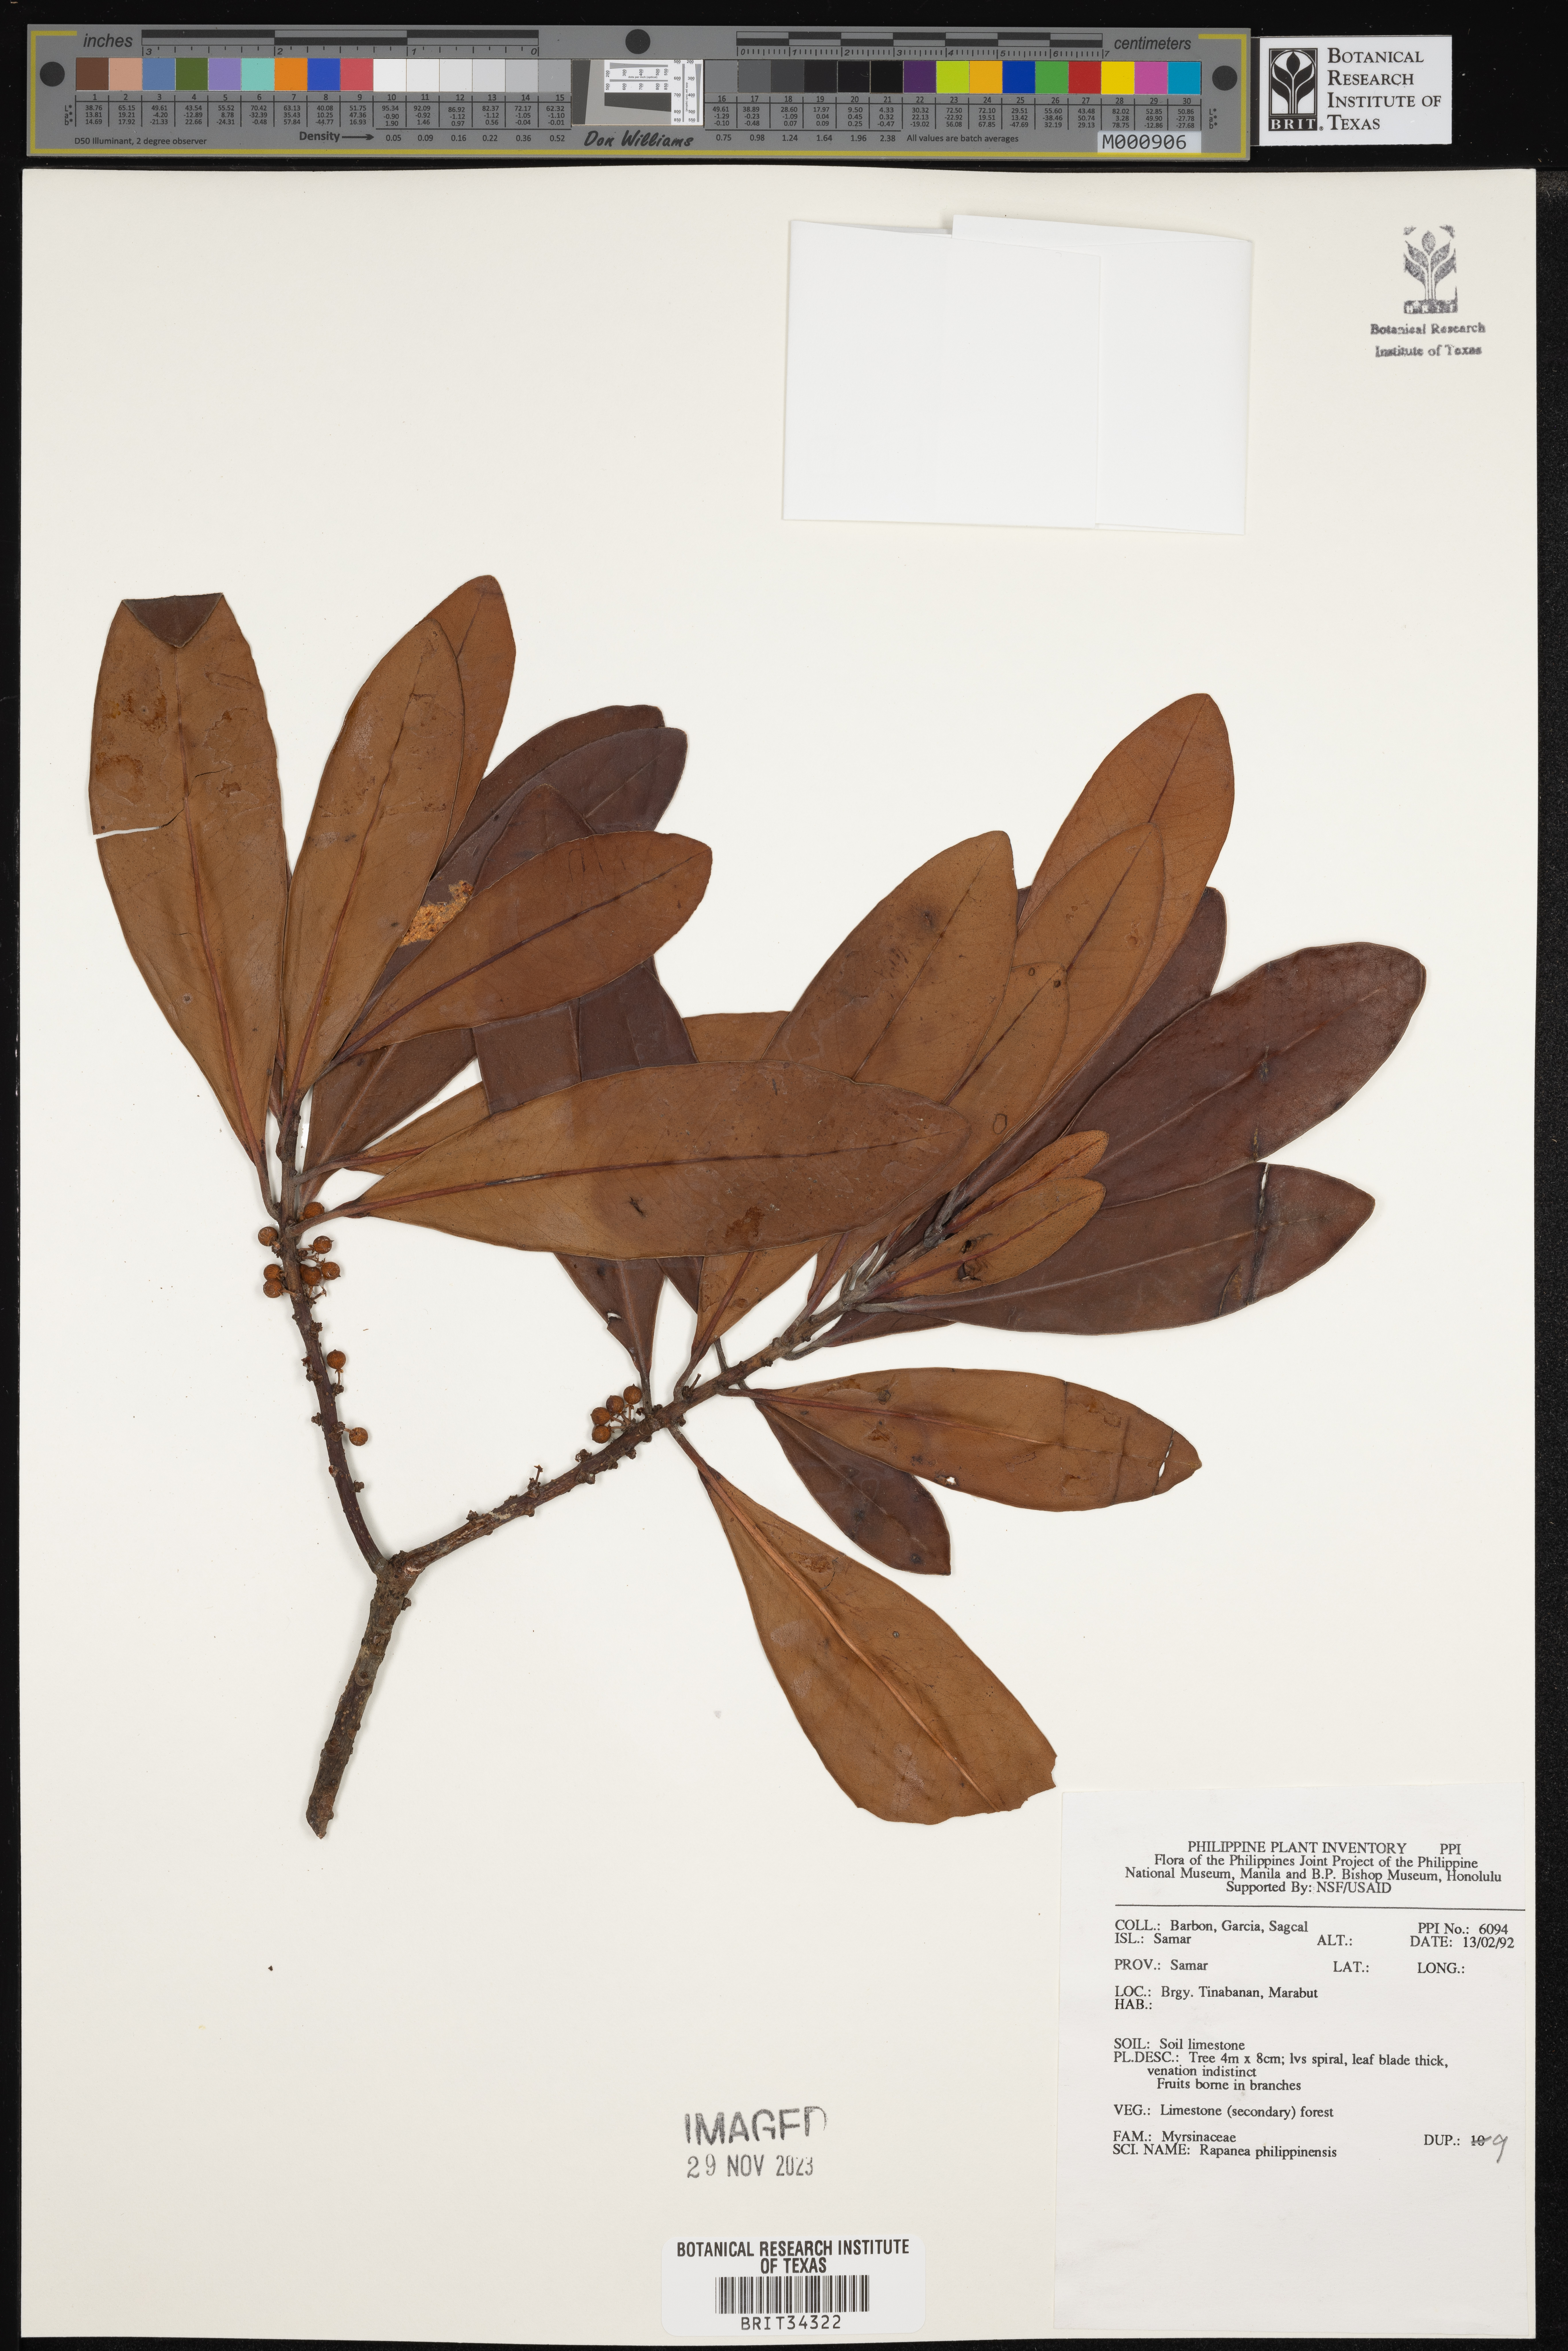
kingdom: Plantae
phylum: Tracheophyta
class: Magnoliopsida
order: Ericales
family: Primulaceae
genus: Myrsine
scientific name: Myrsine seguinii
